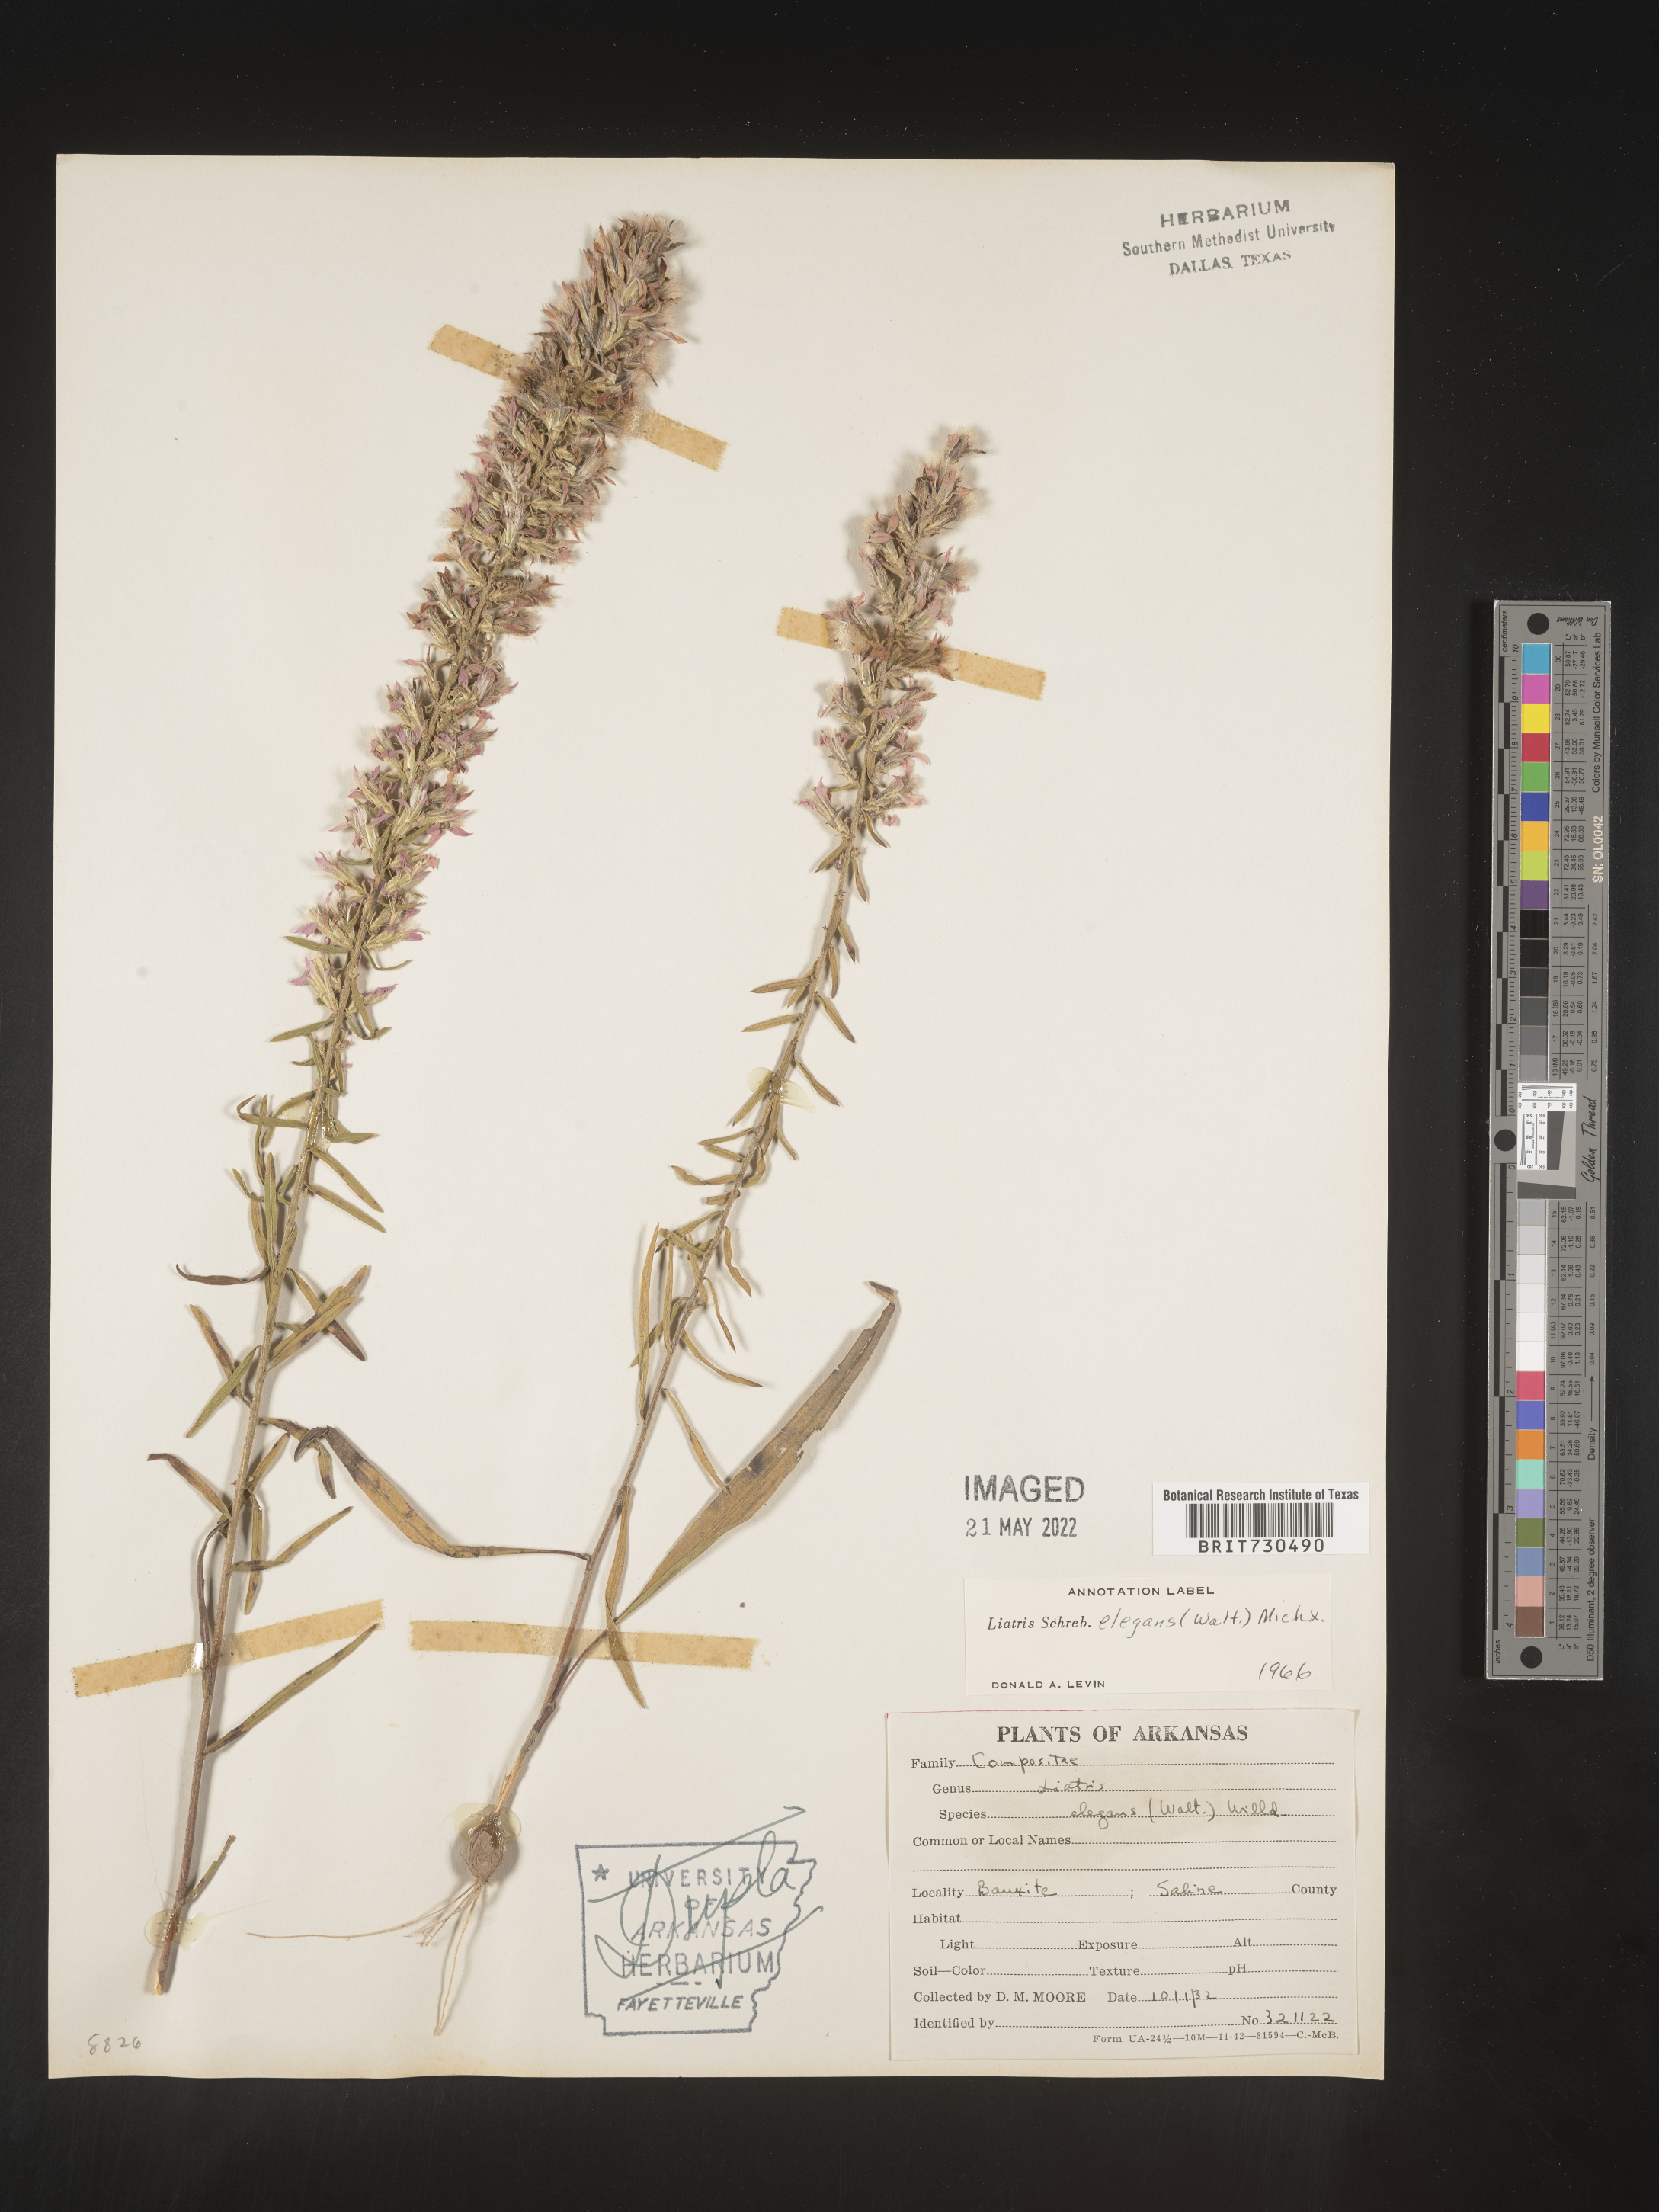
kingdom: Plantae
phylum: Tracheophyta
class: Magnoliopsida
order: Asterales
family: Asteraceae
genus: Liatris
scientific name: Liatris elegans
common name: Pinkscale gayfeather
